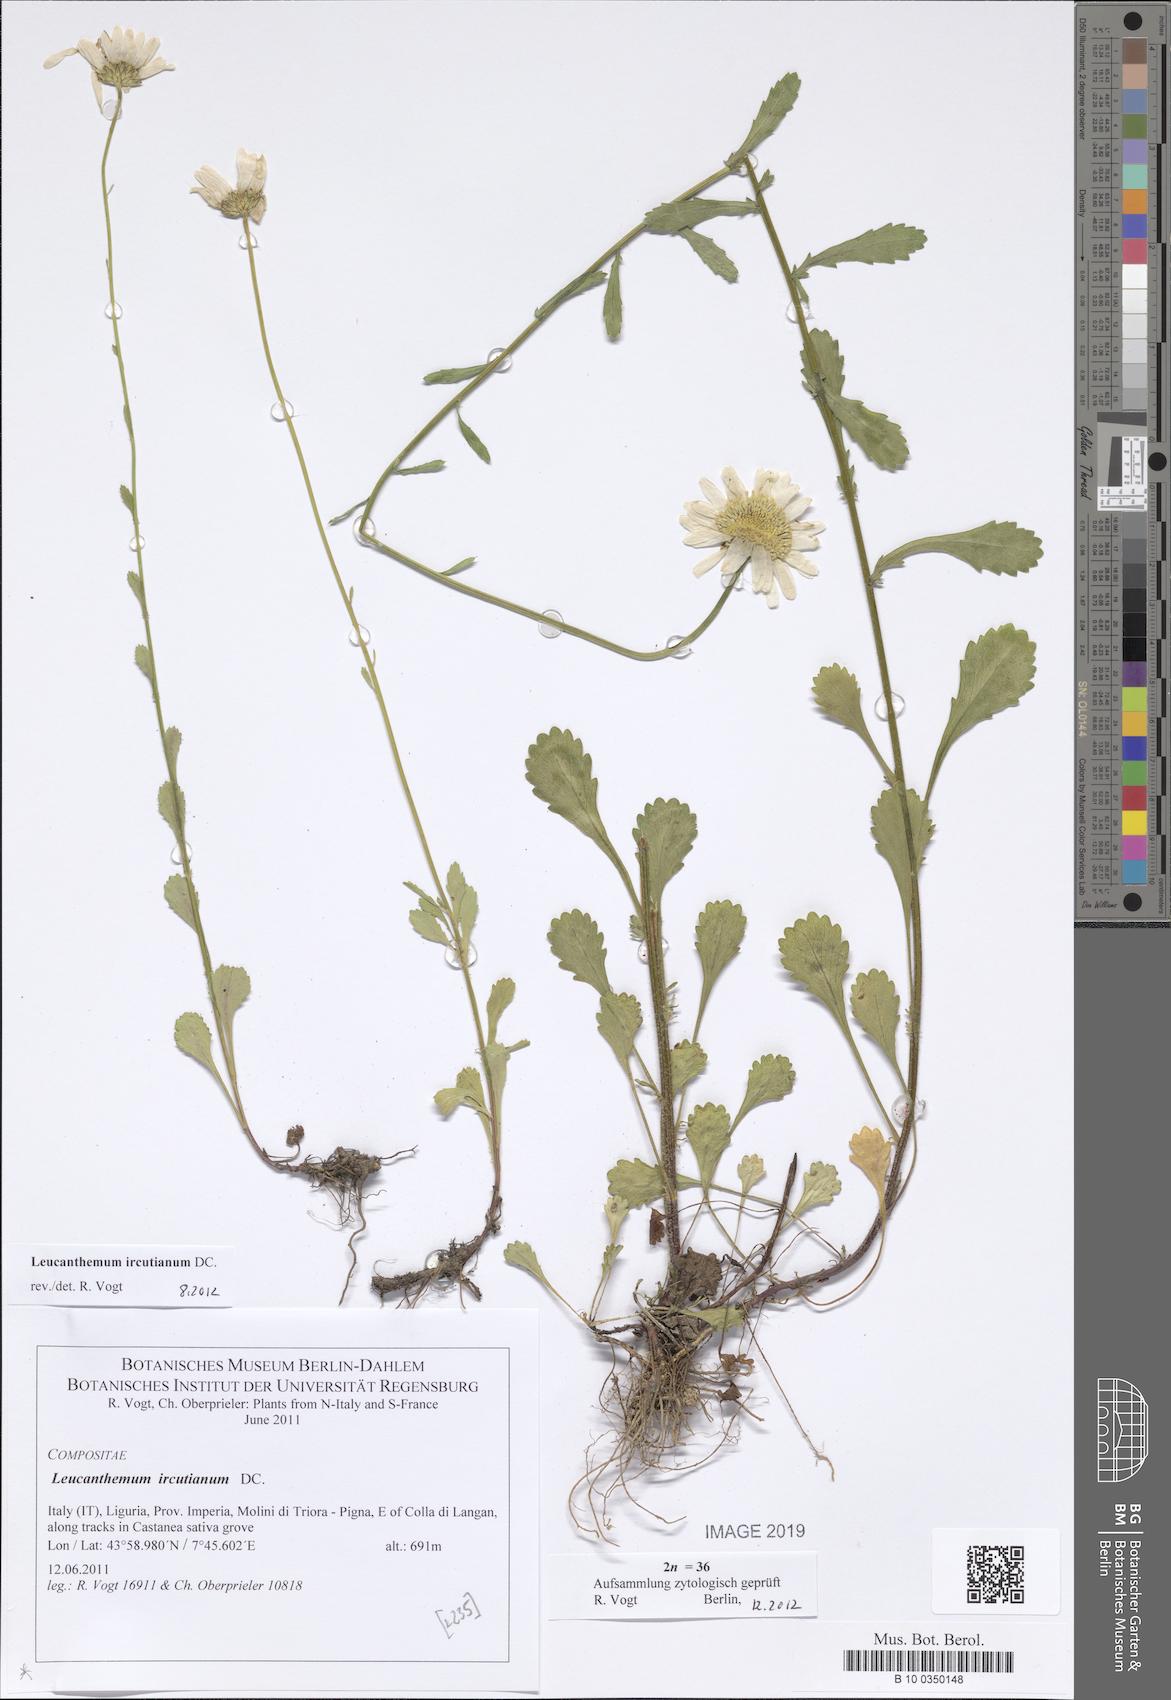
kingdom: Plantae
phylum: Tracheophyta
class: Magnoliopsida
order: Asterales
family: Asteraceae
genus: Leucanthemum
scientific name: Leucanthemum ircutianum
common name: Daisy
